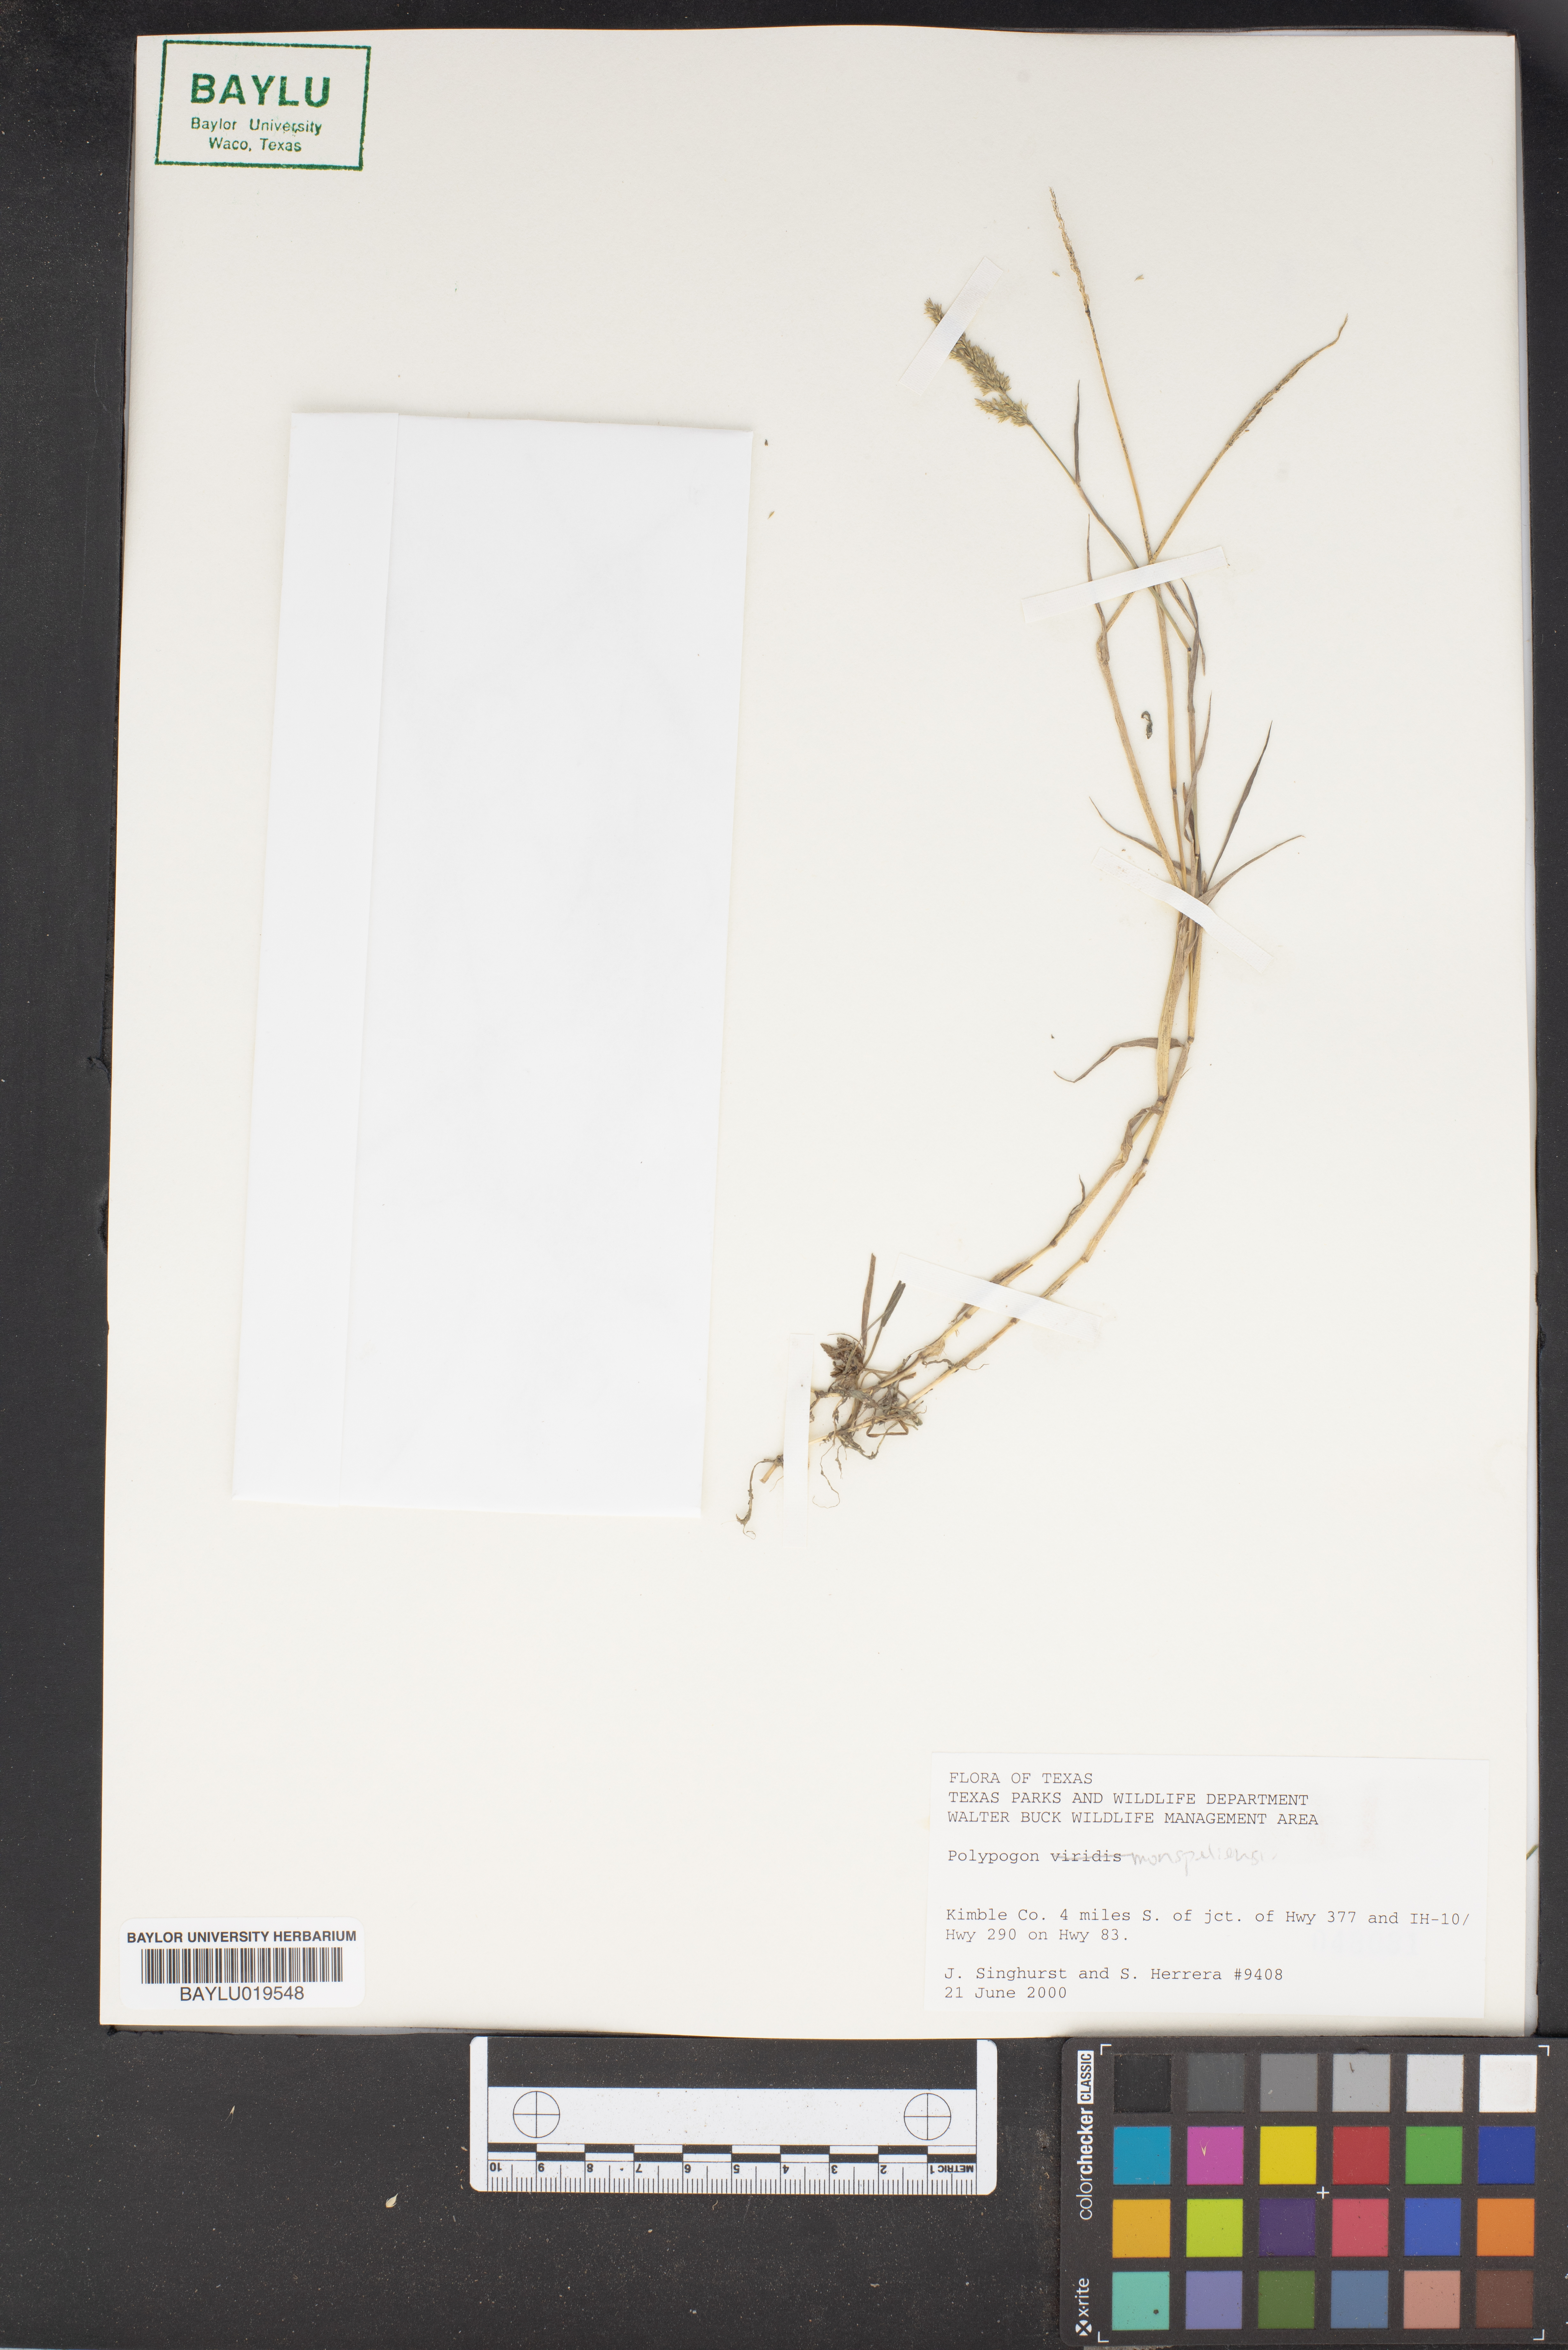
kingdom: Plantae
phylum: Tracheophyta
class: Liliopsida
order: Poales
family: Poaceae
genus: Polypogon
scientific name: Polypogon monspeliensis
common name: Annual rabbitsfoot grass
